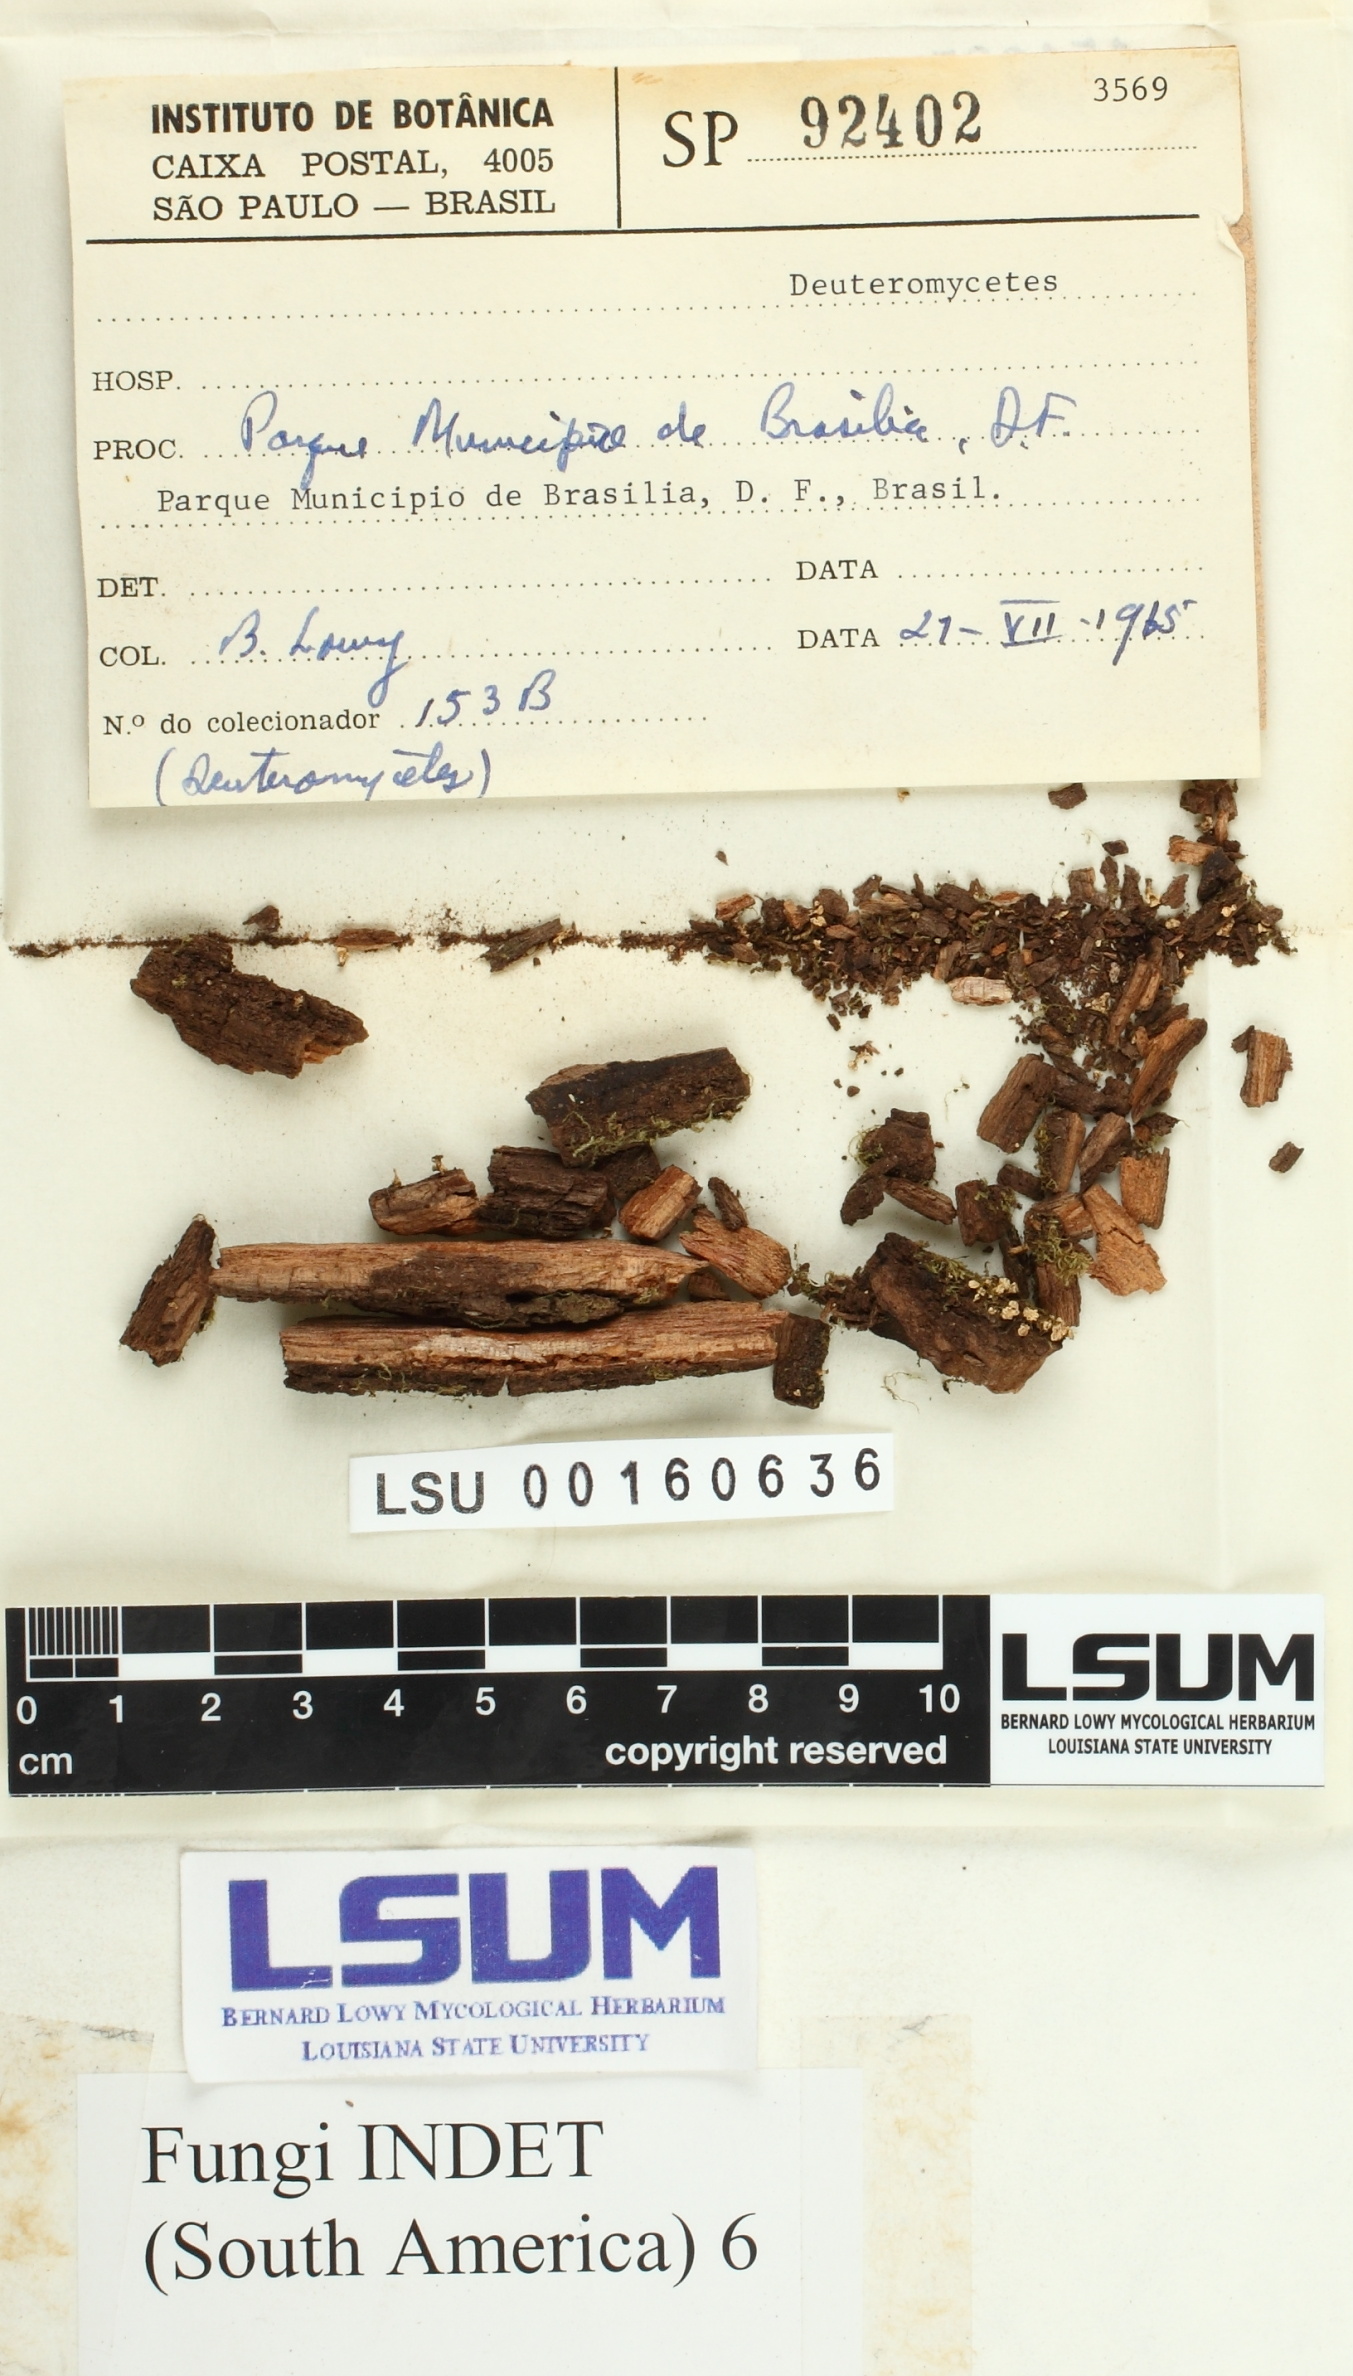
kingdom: Fungi
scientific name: Fungi
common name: Fungi
